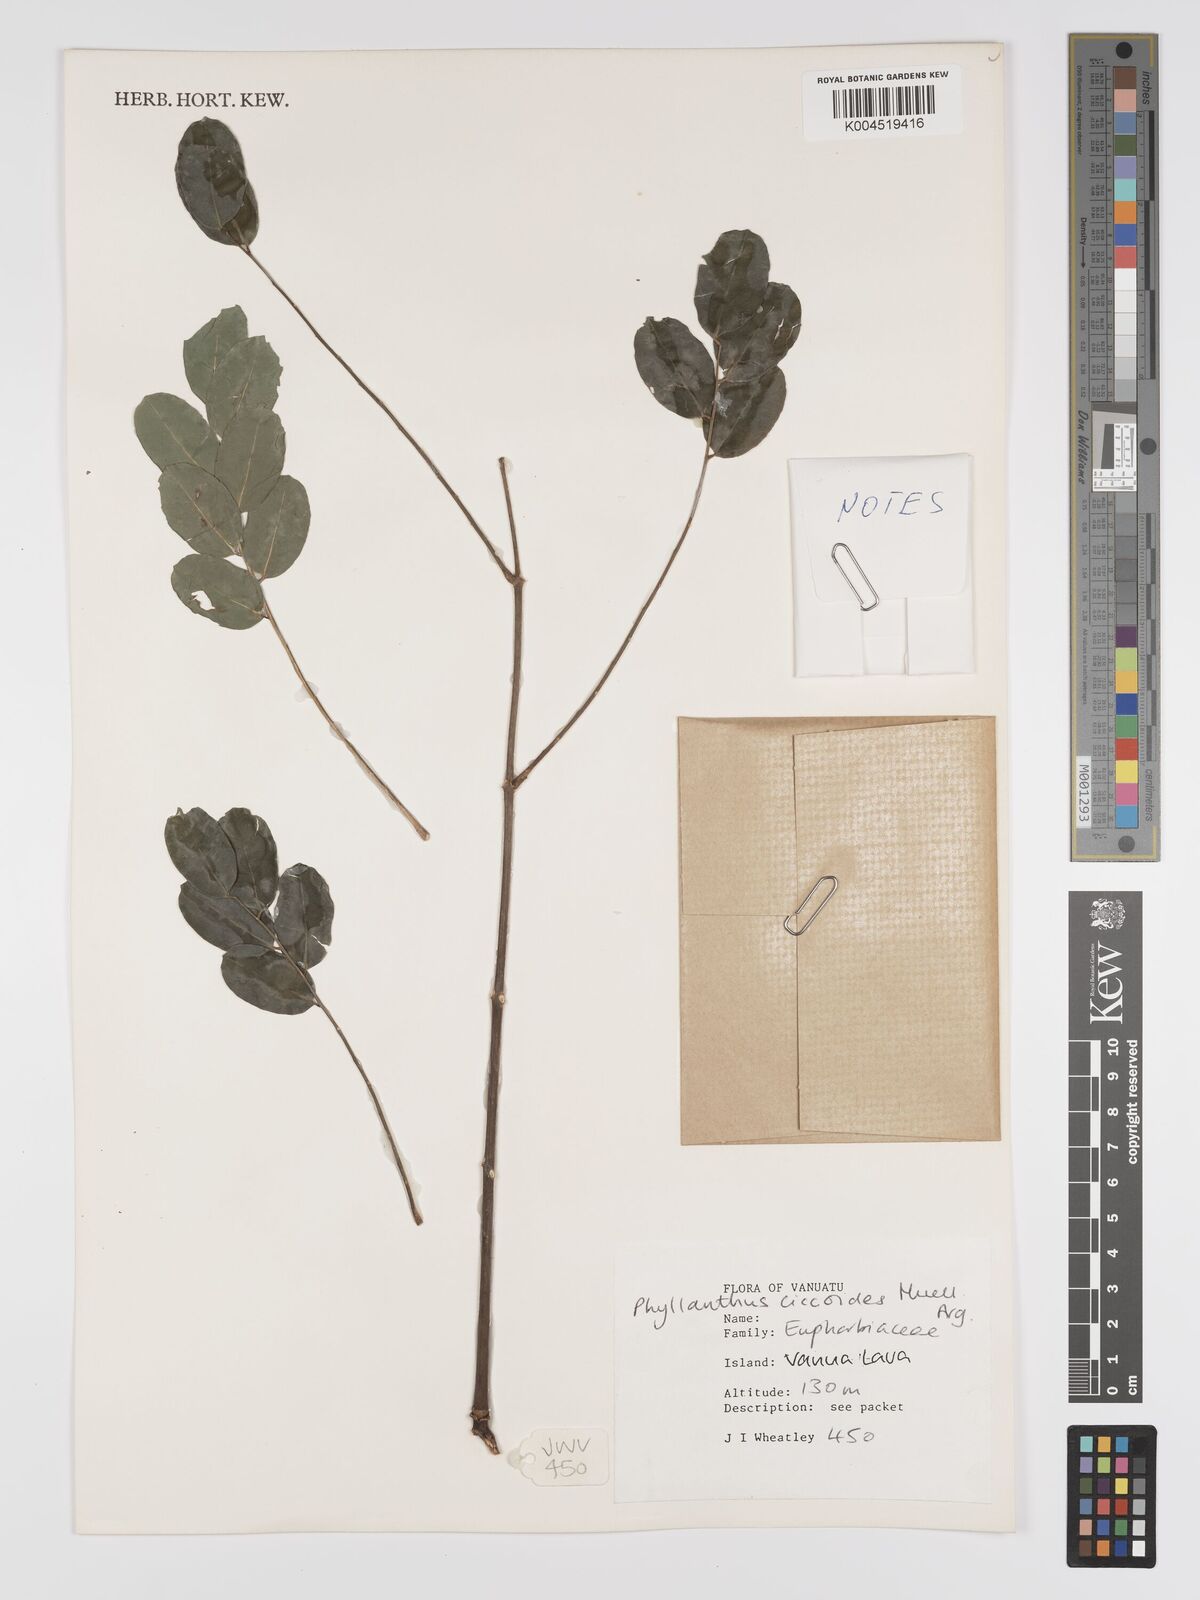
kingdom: Plantae
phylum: Tracheophyta
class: Magnoliopsida
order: Malpighiales
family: Phyllanthaceae
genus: Phyllanthus
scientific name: Phyllanthus ciccoides
